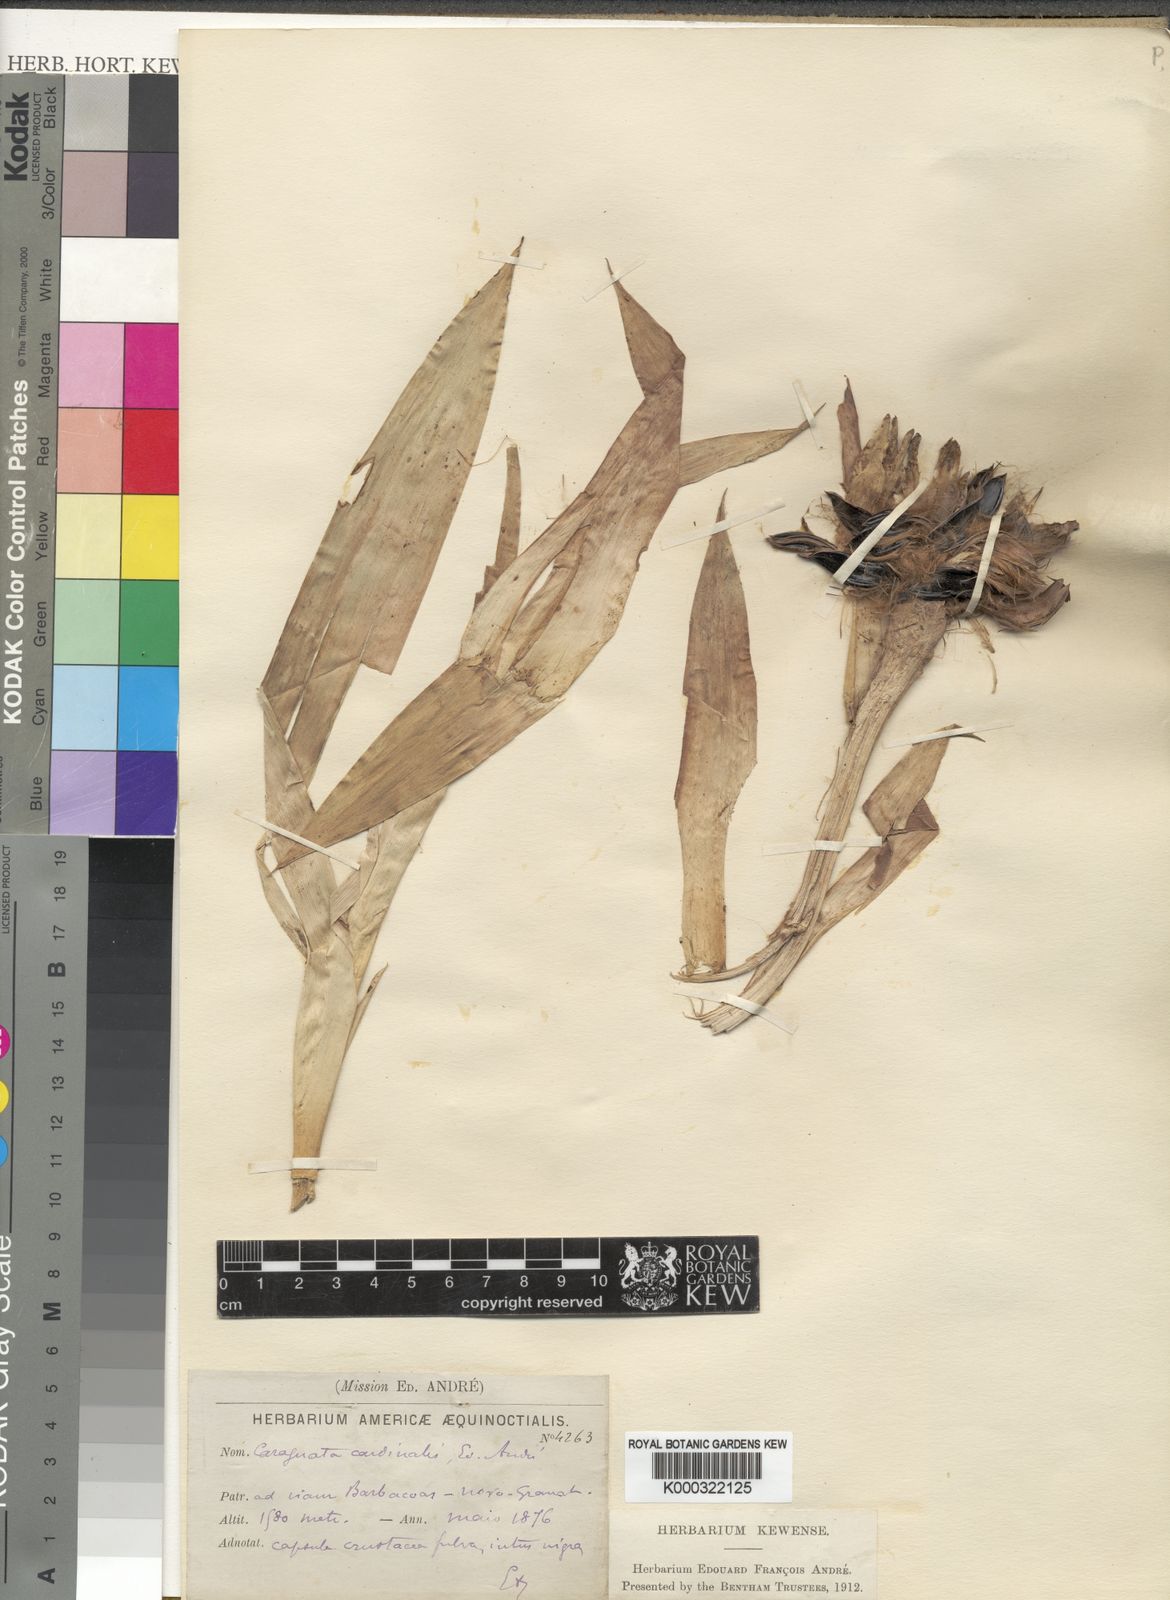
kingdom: Plantae
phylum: Tracheophyta
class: Liliopsida
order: Poales
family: Bromeliaceae
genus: Guzmania
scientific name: Guzmania lingulata
